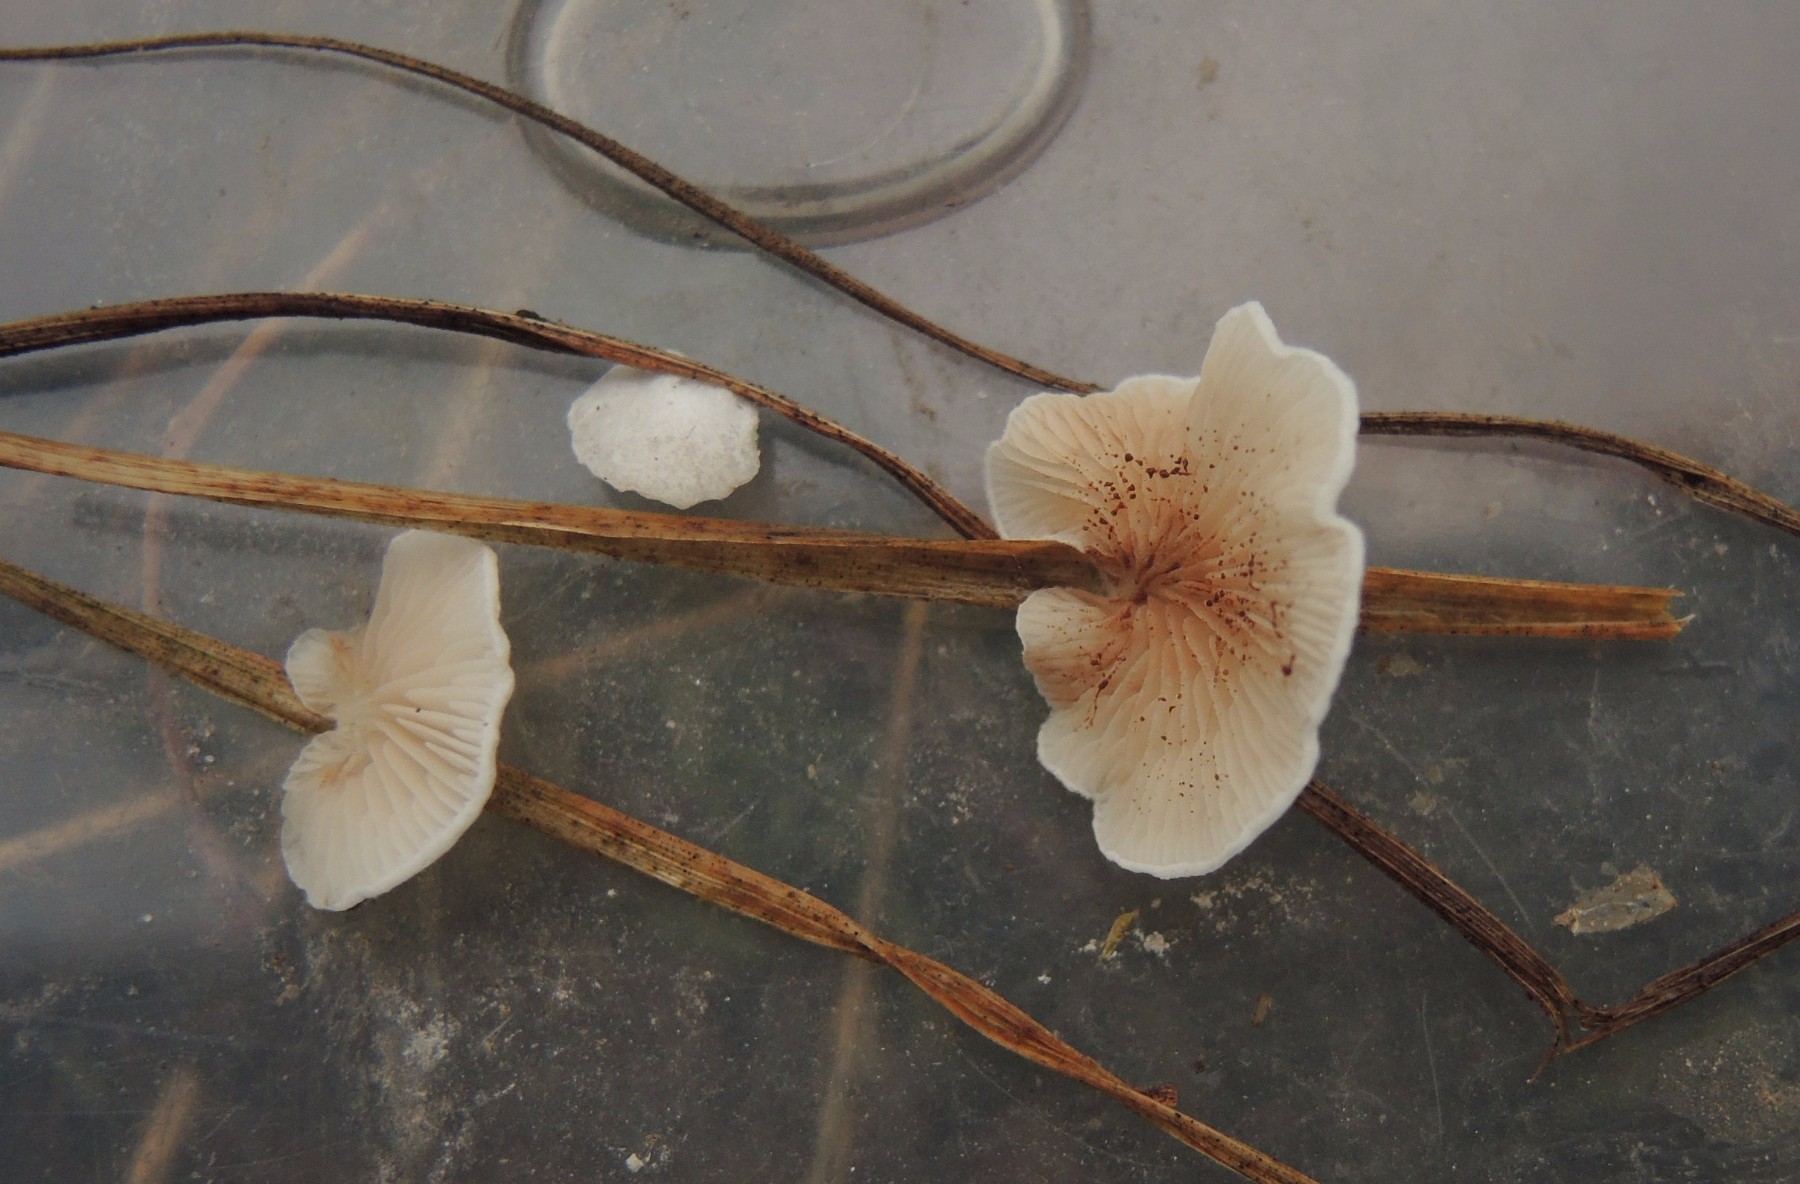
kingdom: Fungi
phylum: Basidiomycota
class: Agaricomycetes
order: Agaricales
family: Crepidotaceae
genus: Crepidotus
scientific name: Crepidotus variabilis
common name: forskelligformet muslingesvamp
